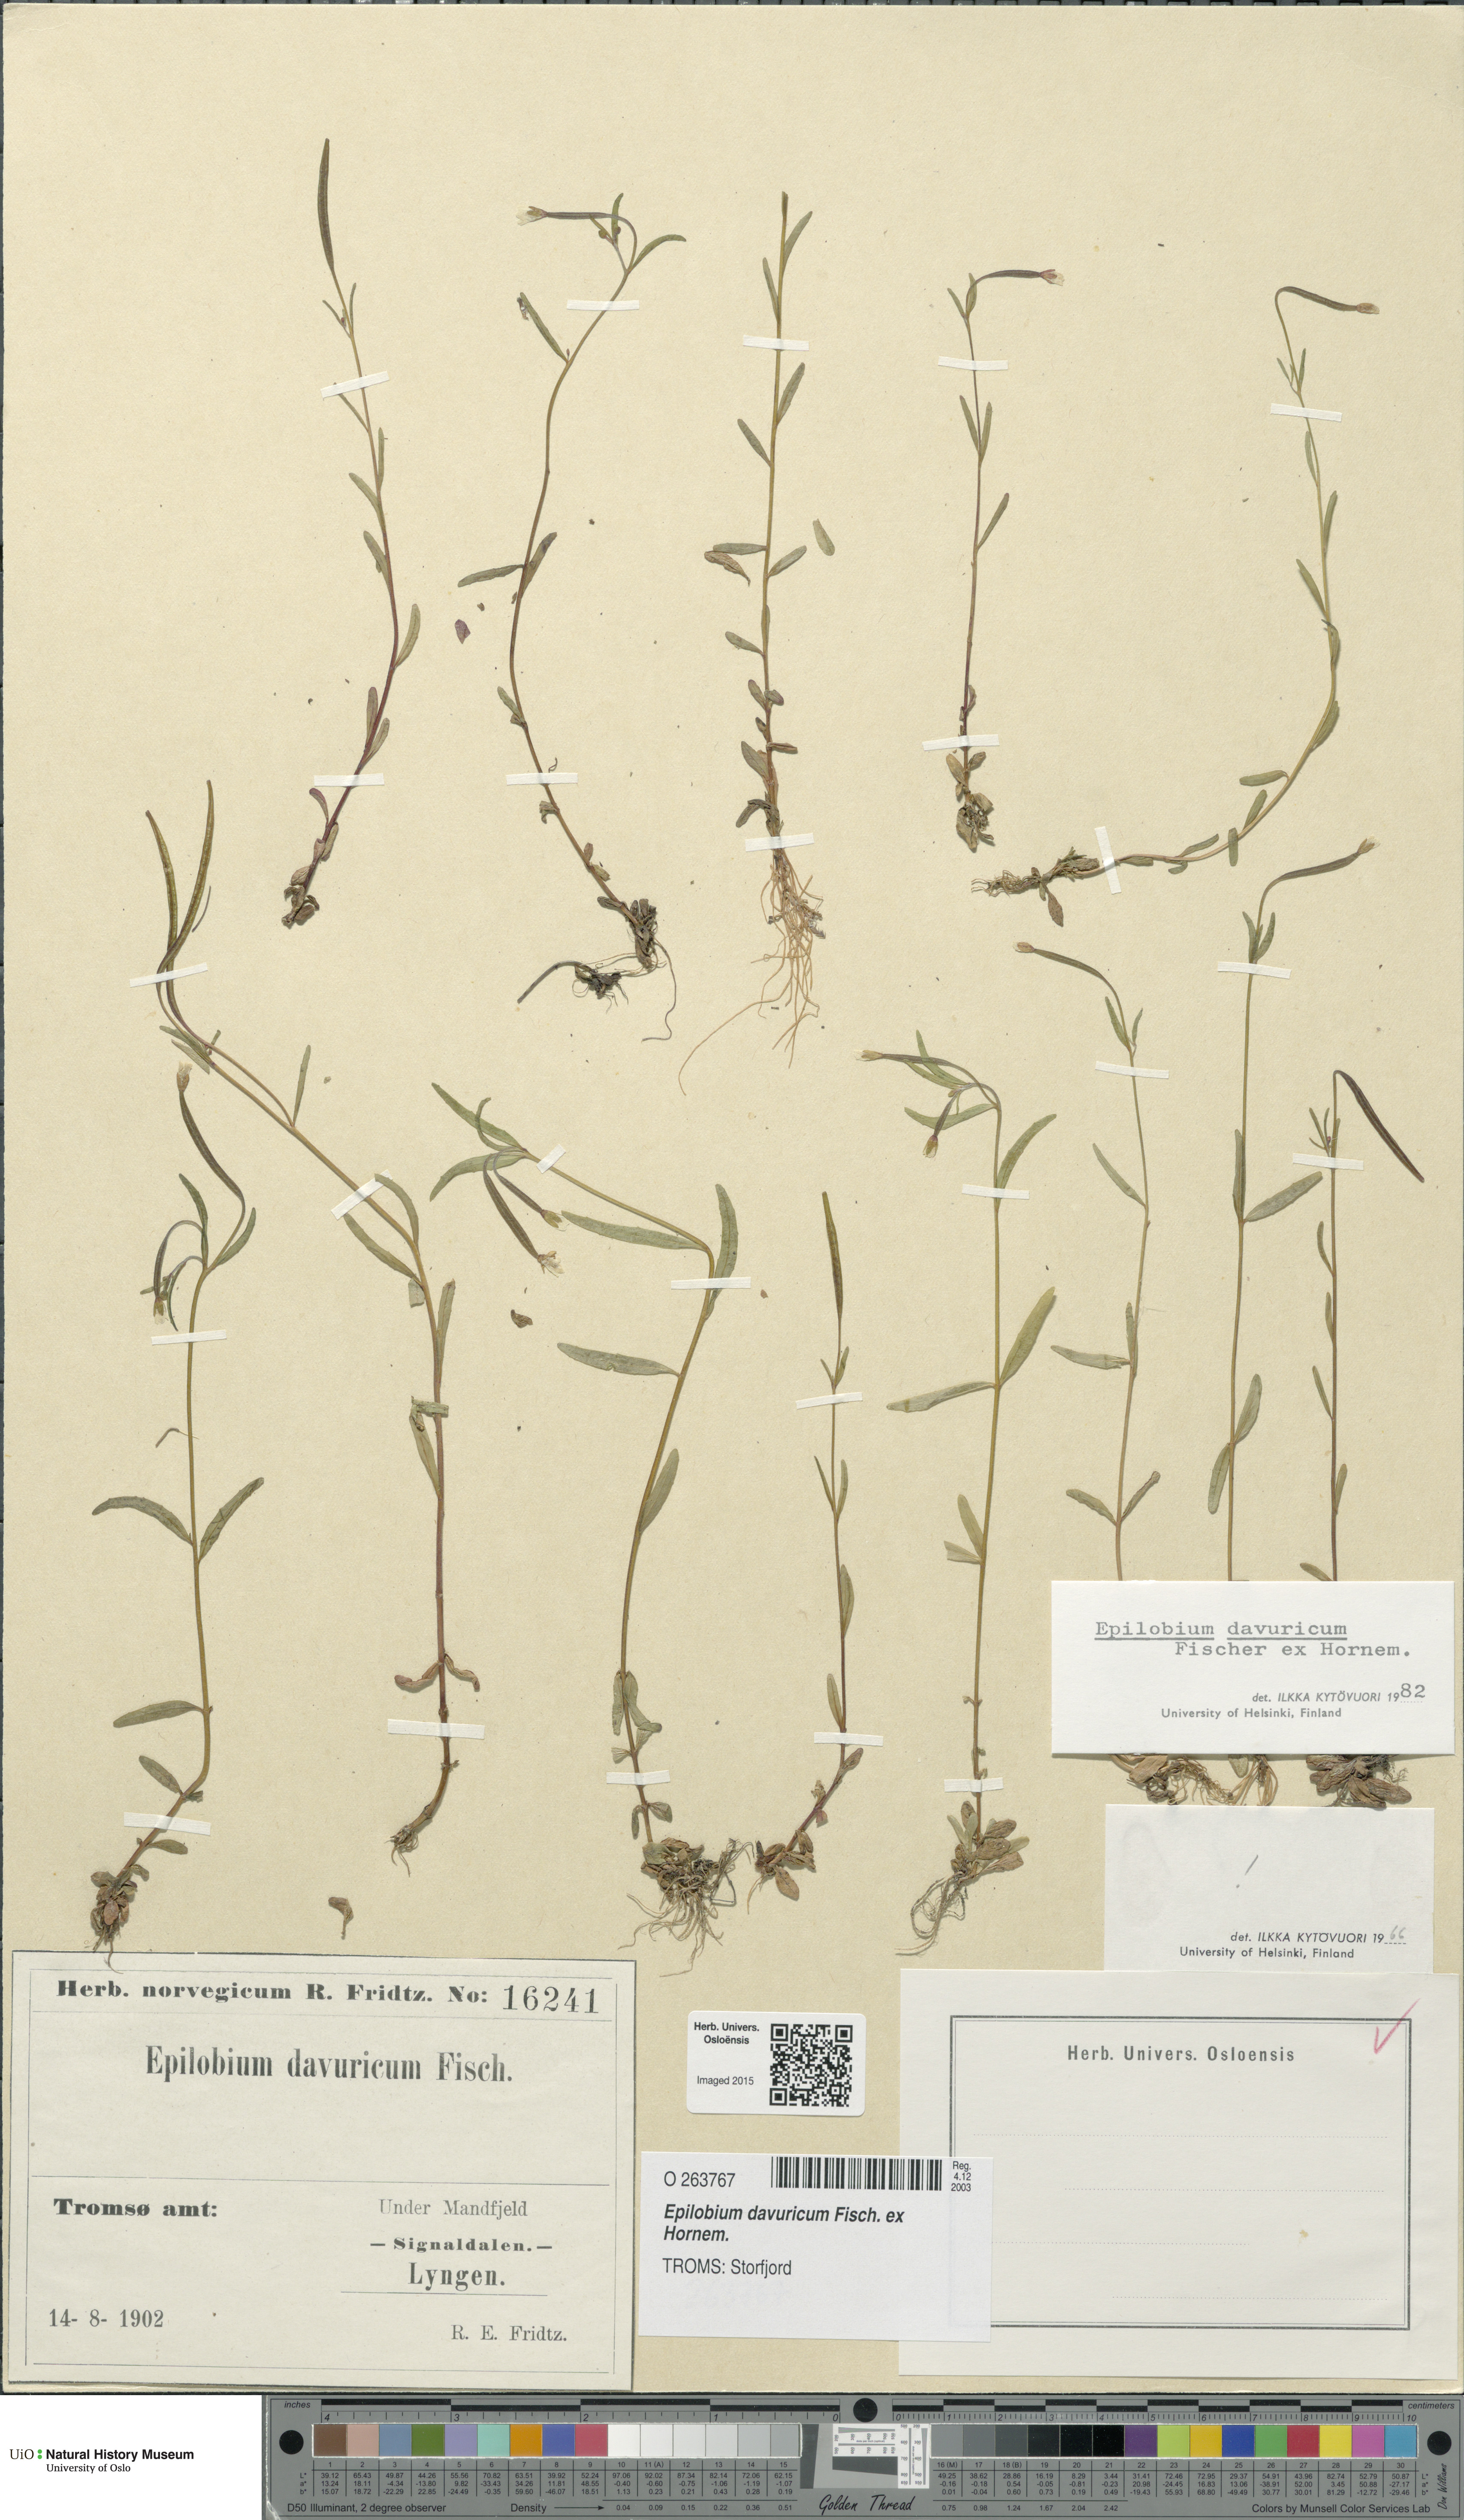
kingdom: Plantae
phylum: Tracheophyta
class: Magnoliopsida
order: Myrtales
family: Onagraceae
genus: Epilobium
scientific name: Epilobium davuricum
